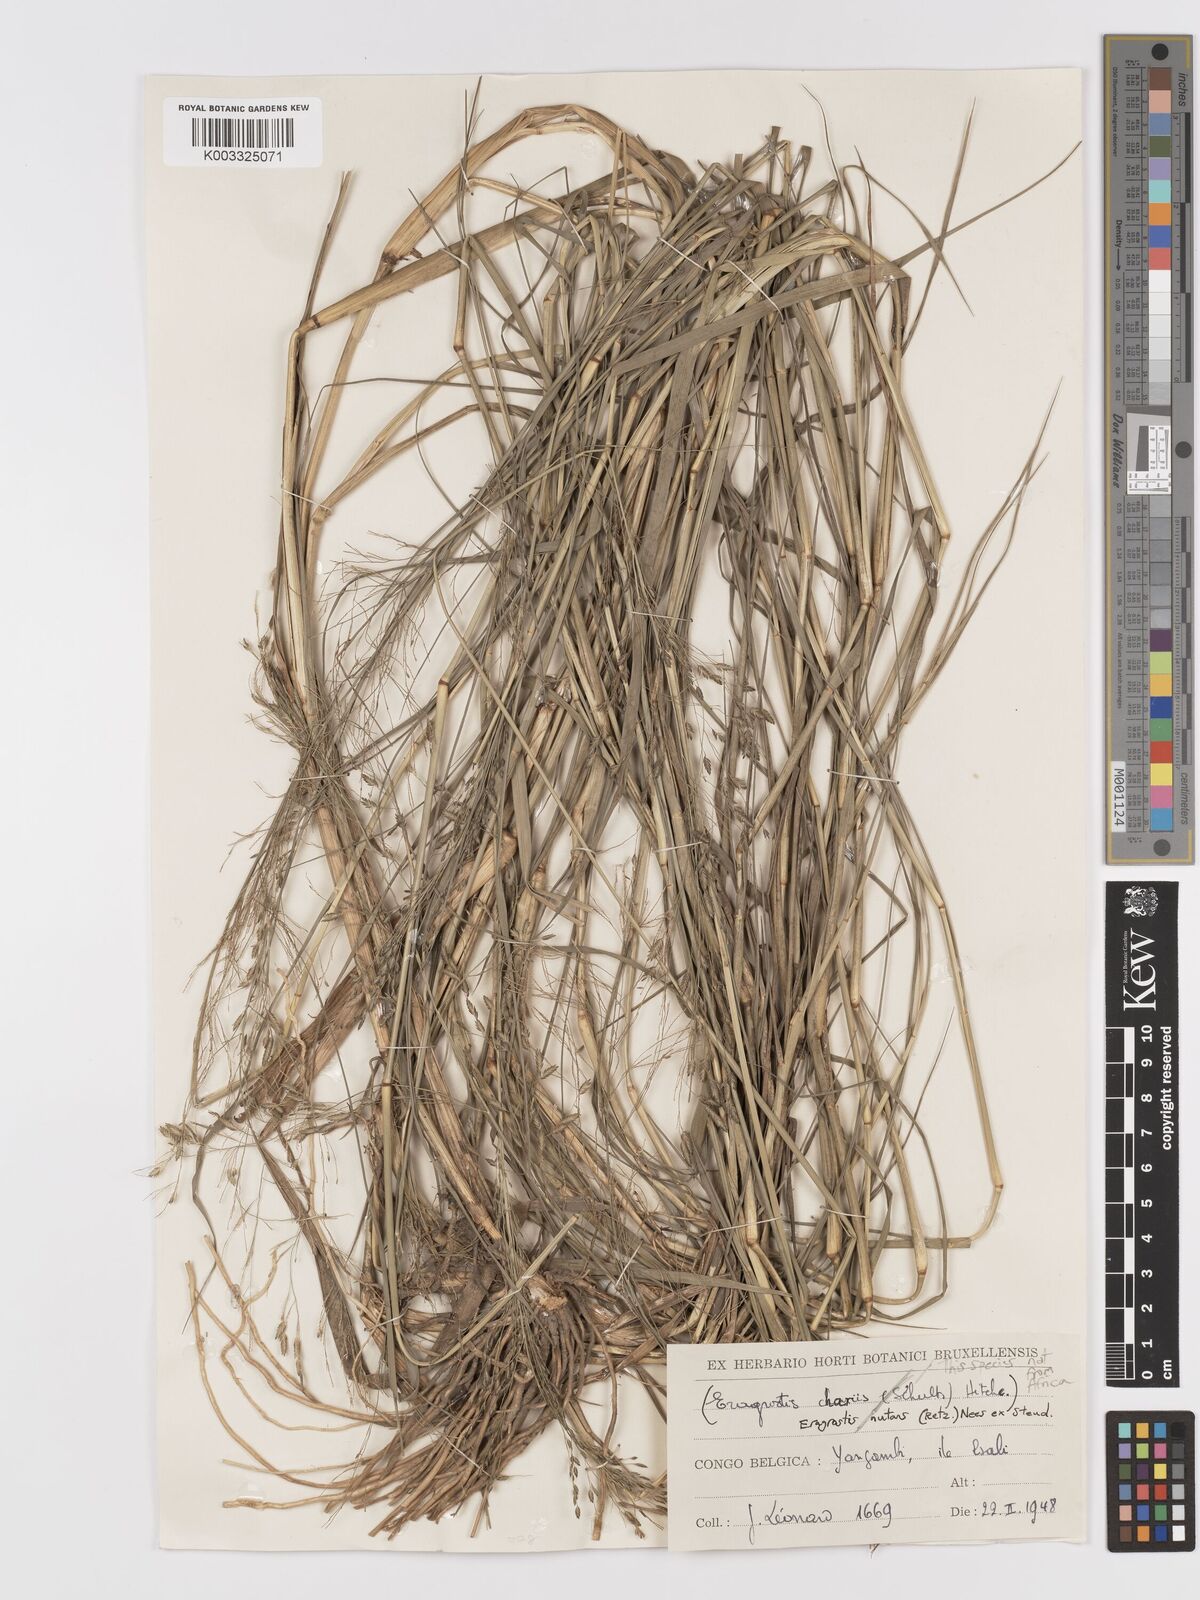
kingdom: Plantae
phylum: Tracheophyta
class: Liliopsida
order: Poales
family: Poaceae
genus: Eragrostis
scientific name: Eragrostis
